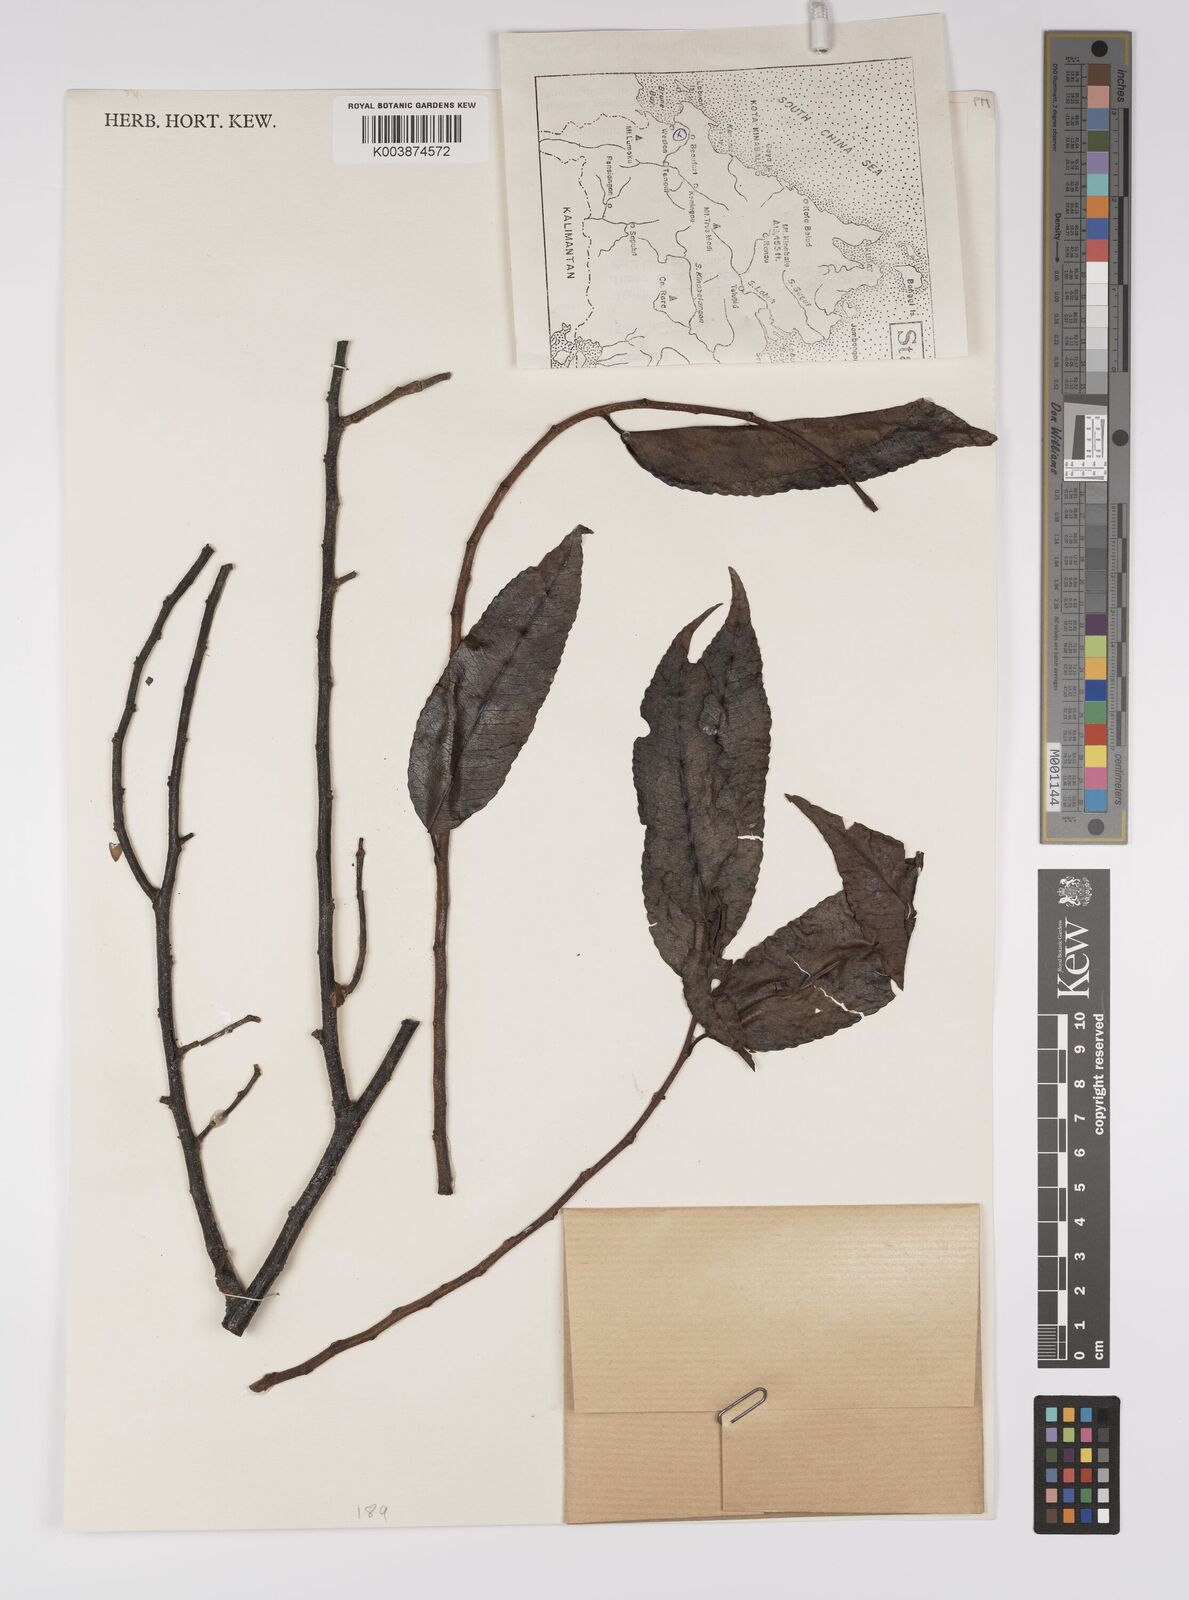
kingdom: Plantae
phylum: Tracheophyta
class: Magnoliopsida
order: Malpighiales
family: Euphorbiaceae
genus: Shirakiopsis
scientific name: Shirakiopsis indica
